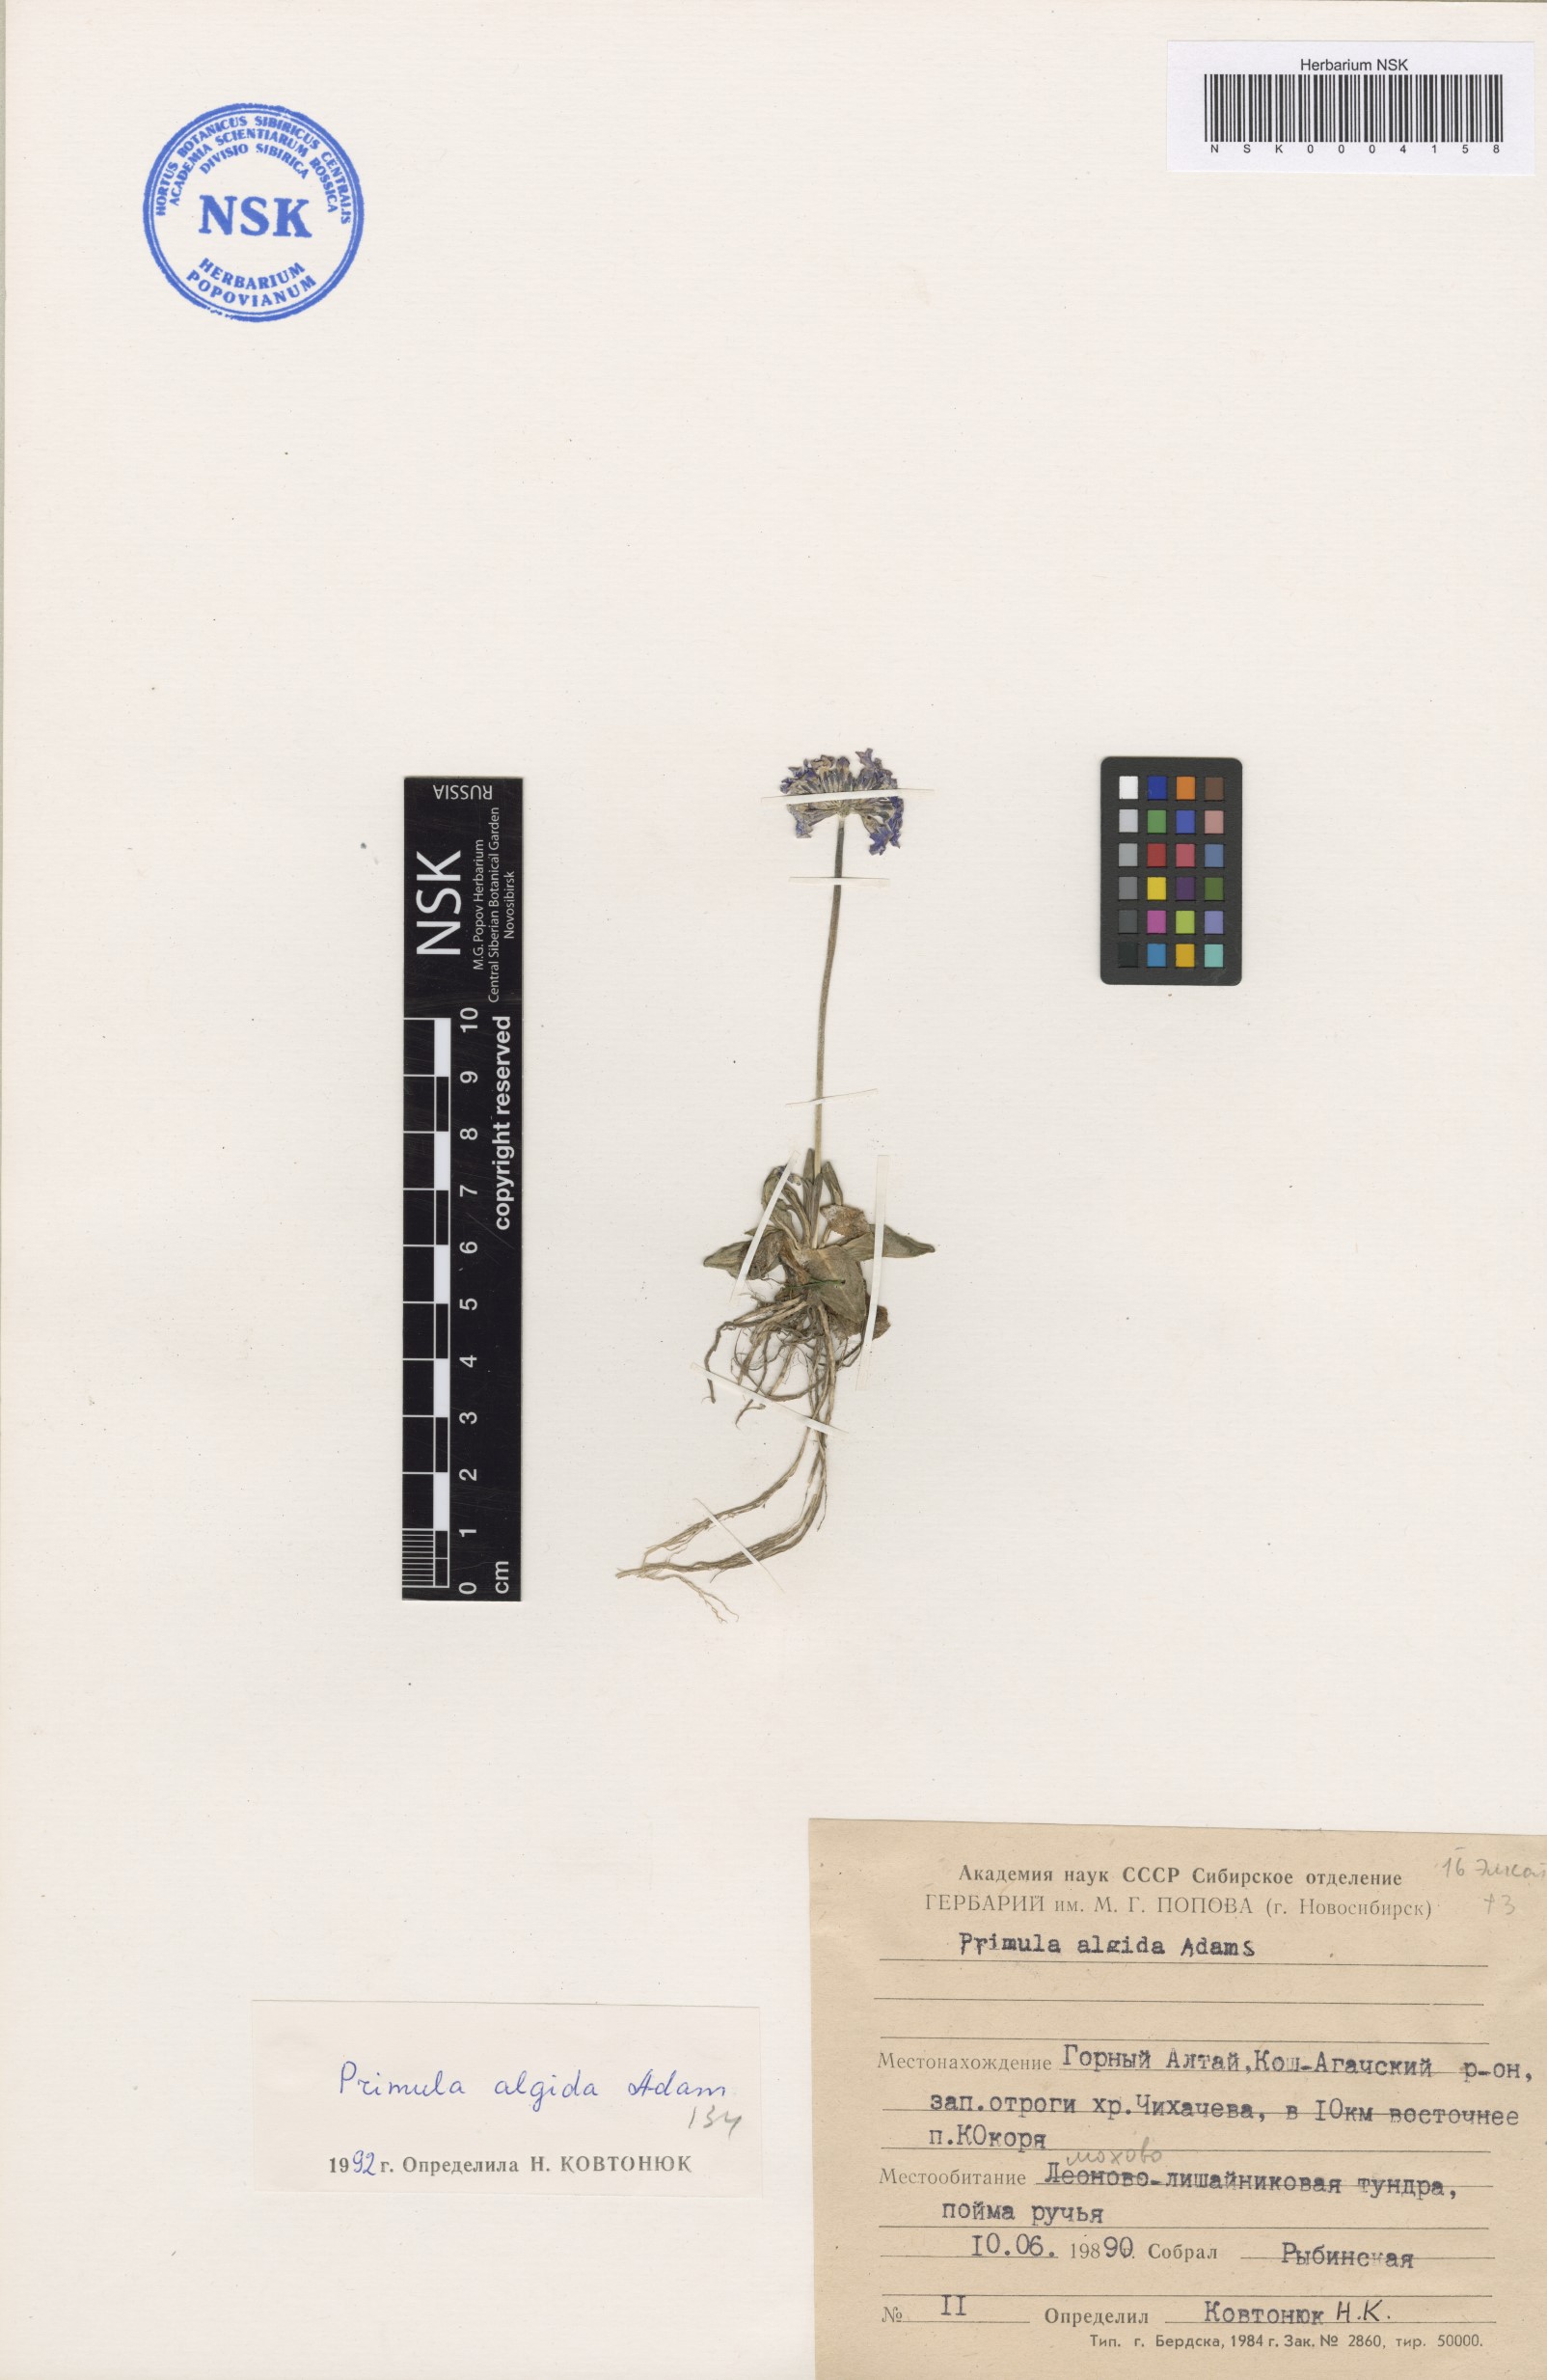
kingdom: Plantae
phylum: Tracheophyta
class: Magnoliopsida
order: Ericales
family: Primulaceae
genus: Primula
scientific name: Primula algida
